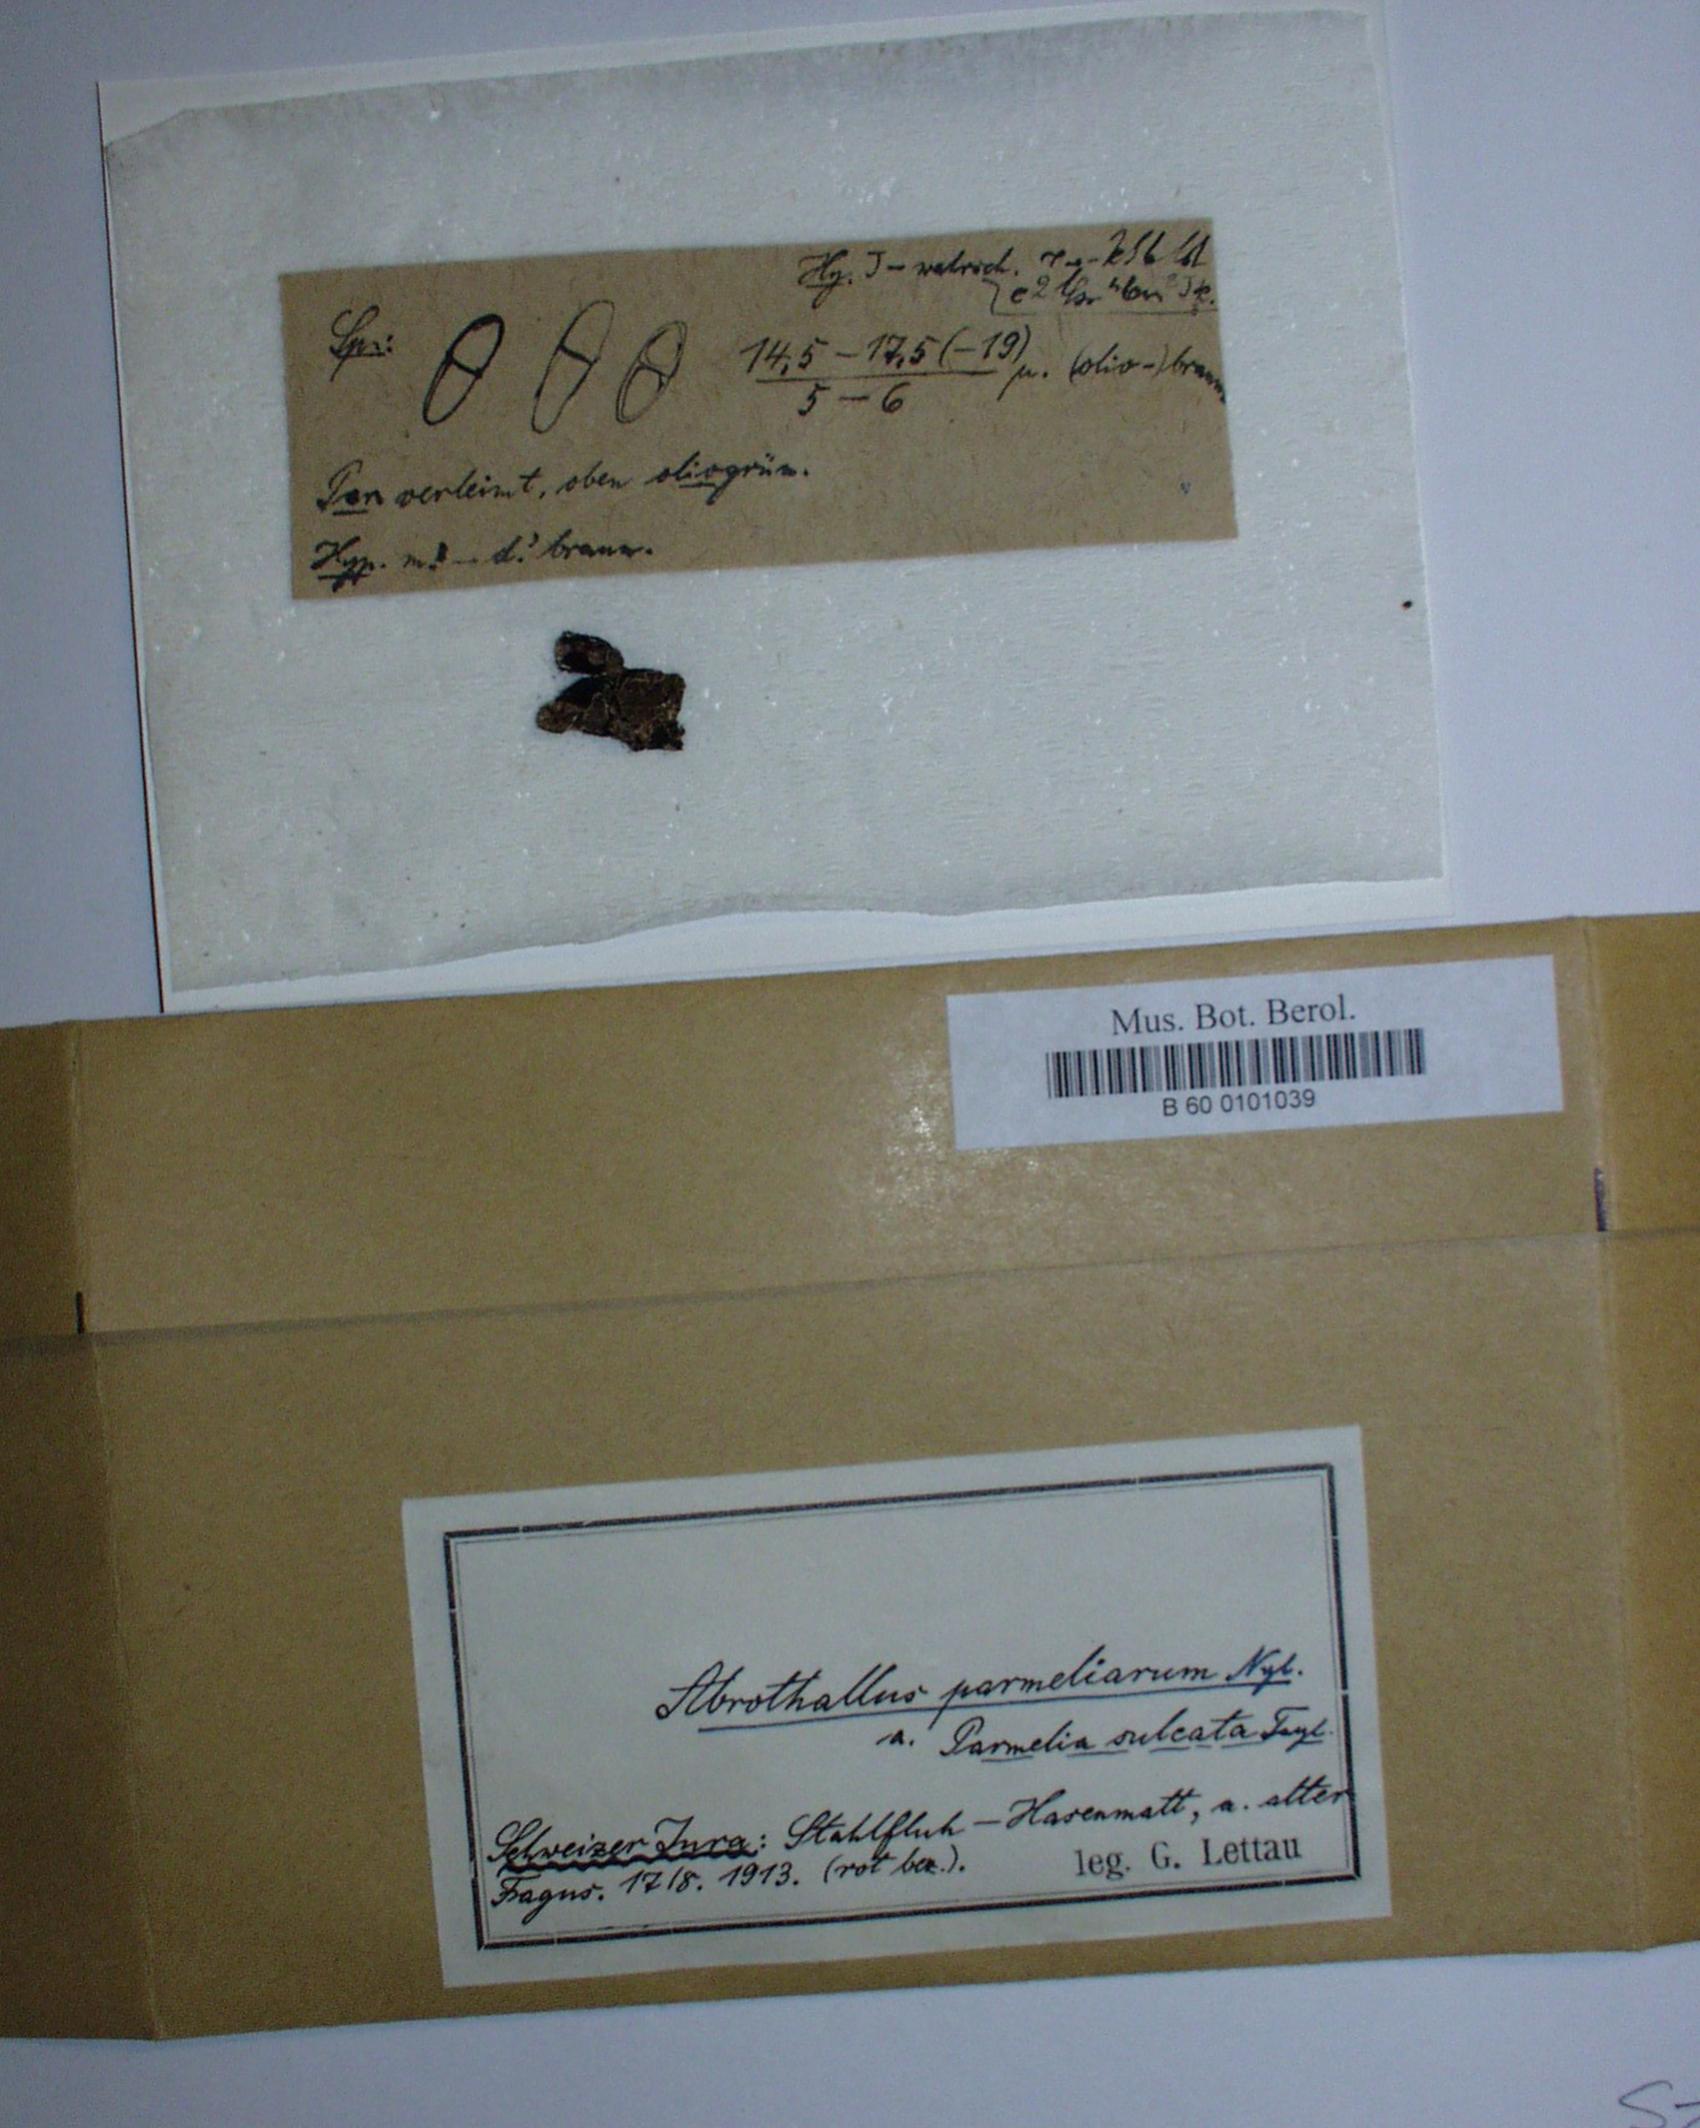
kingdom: Fungi
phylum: Ascomycota
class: Dothideomycetes
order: Abrothallales
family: Abrothallaceae
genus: Abrothallus
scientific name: Abrothallus parmeliarum
